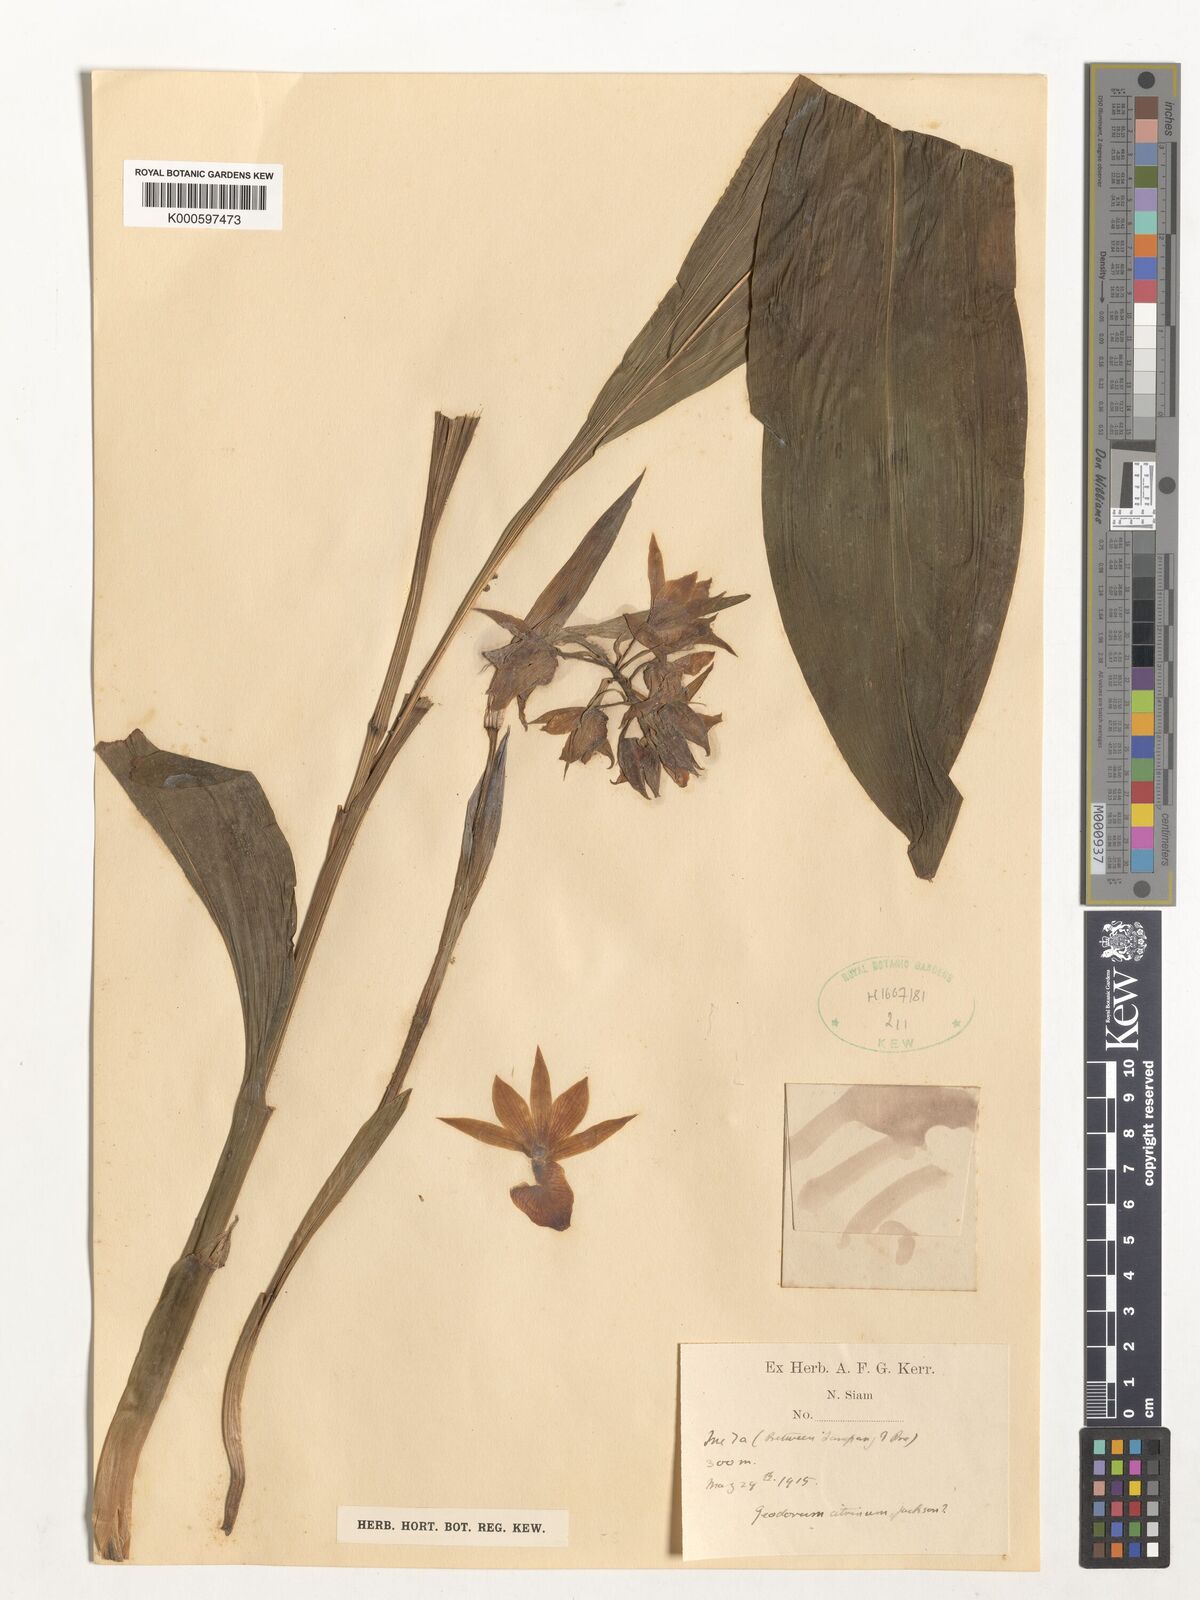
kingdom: Plantae
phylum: Tracheophyta
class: Liliopsida
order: Asparagales
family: Orchidaceae
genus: Geodorum
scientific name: Geodorum
